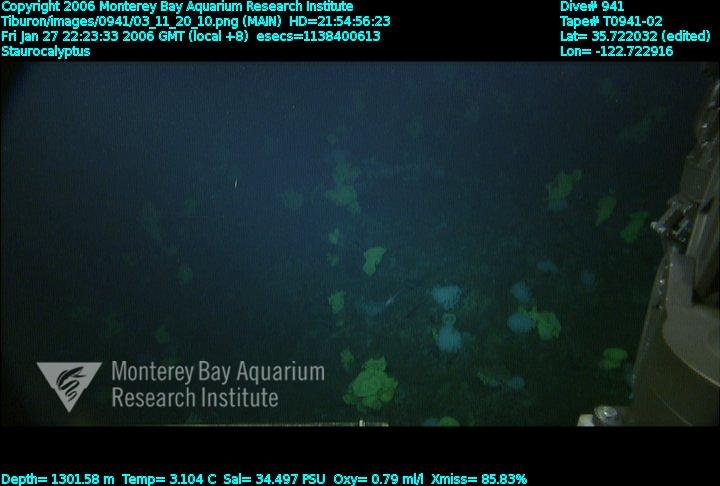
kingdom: Animalia
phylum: Porifera
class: Hexactinellida
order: Lyssacinosida
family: Rossellidae
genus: Staurocalyptus
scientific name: Staurocalyptus
